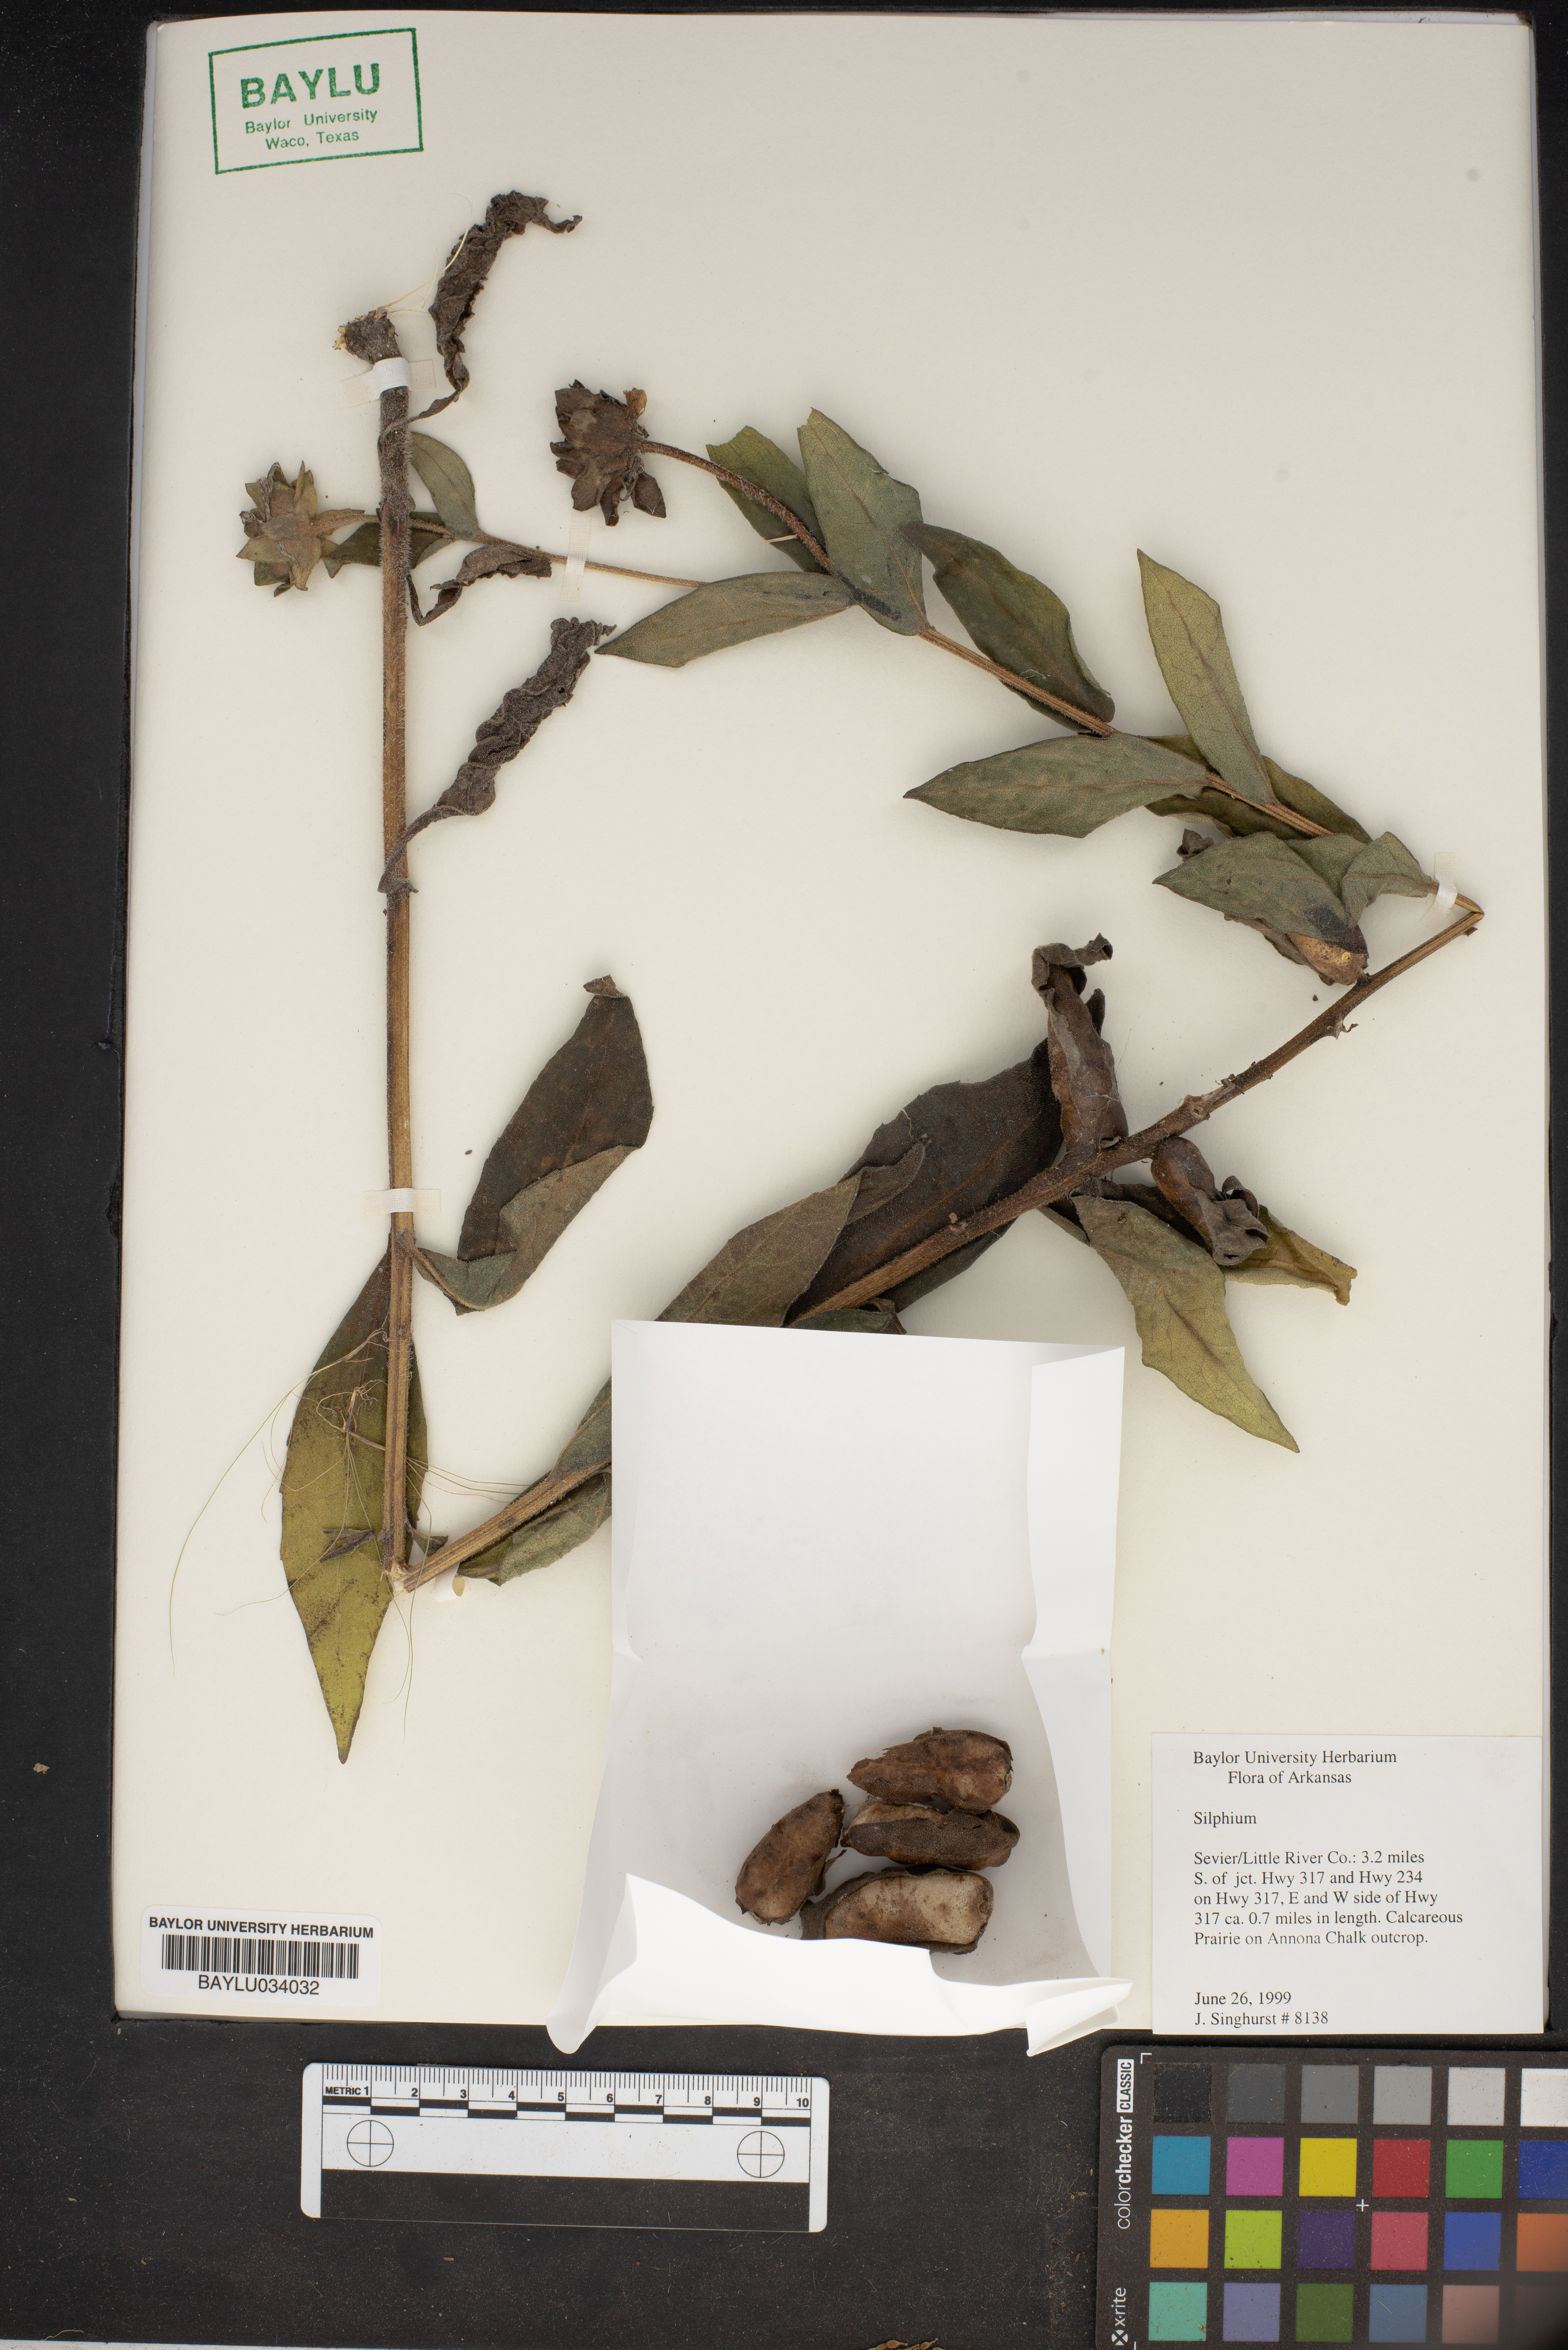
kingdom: Plantae
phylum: Tracheophyta
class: Magnoliopsida
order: Asterales
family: Asteraceae
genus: Silphium
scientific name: Silphium
